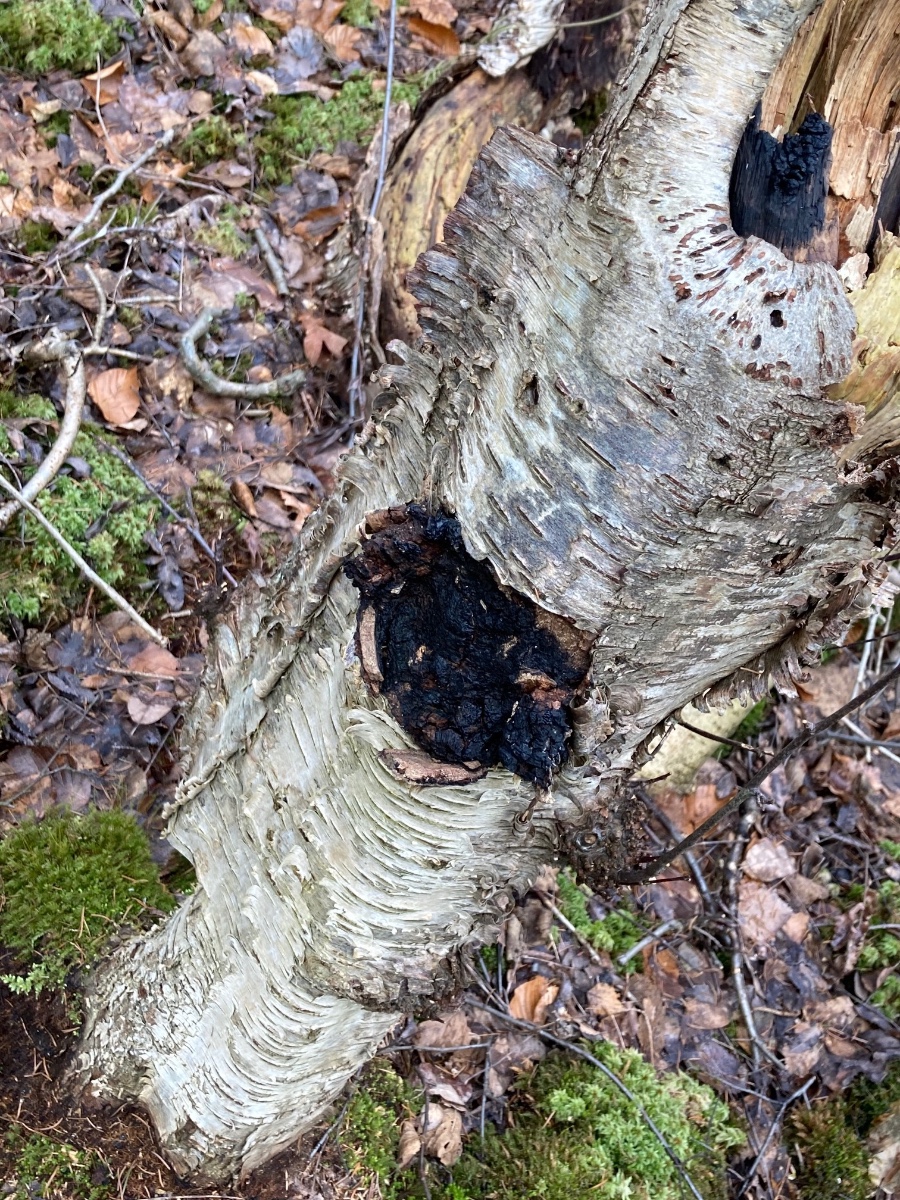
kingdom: Fungi
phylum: Basidiomycota
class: Agaricomycetes
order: Hymenochaetales
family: Hymenochaetaceae
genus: Inonotus
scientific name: Inonotus obliquus
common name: birke-spejlporesvamp
